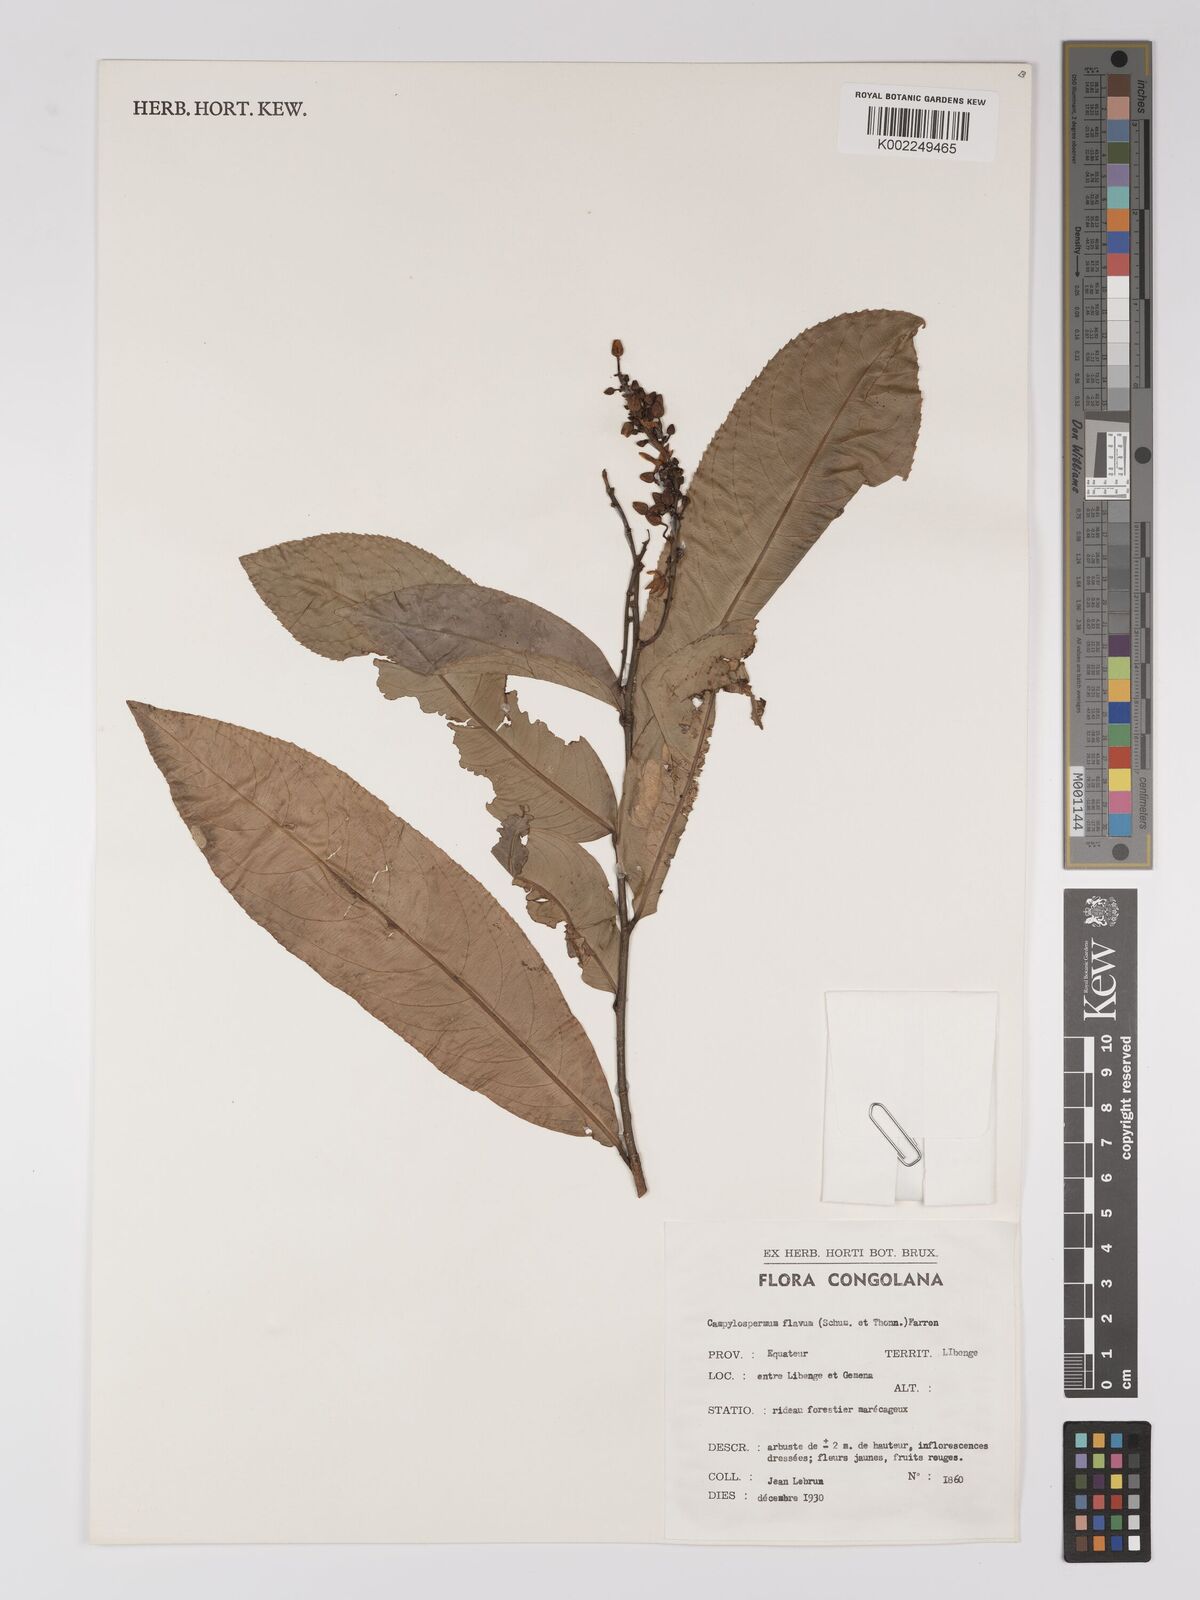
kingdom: Plantae
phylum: Tracheophyta
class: Magnoliopsida
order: Malpighiales
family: Ochnaceae
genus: Campylospermum
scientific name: Campylospermum flavum
